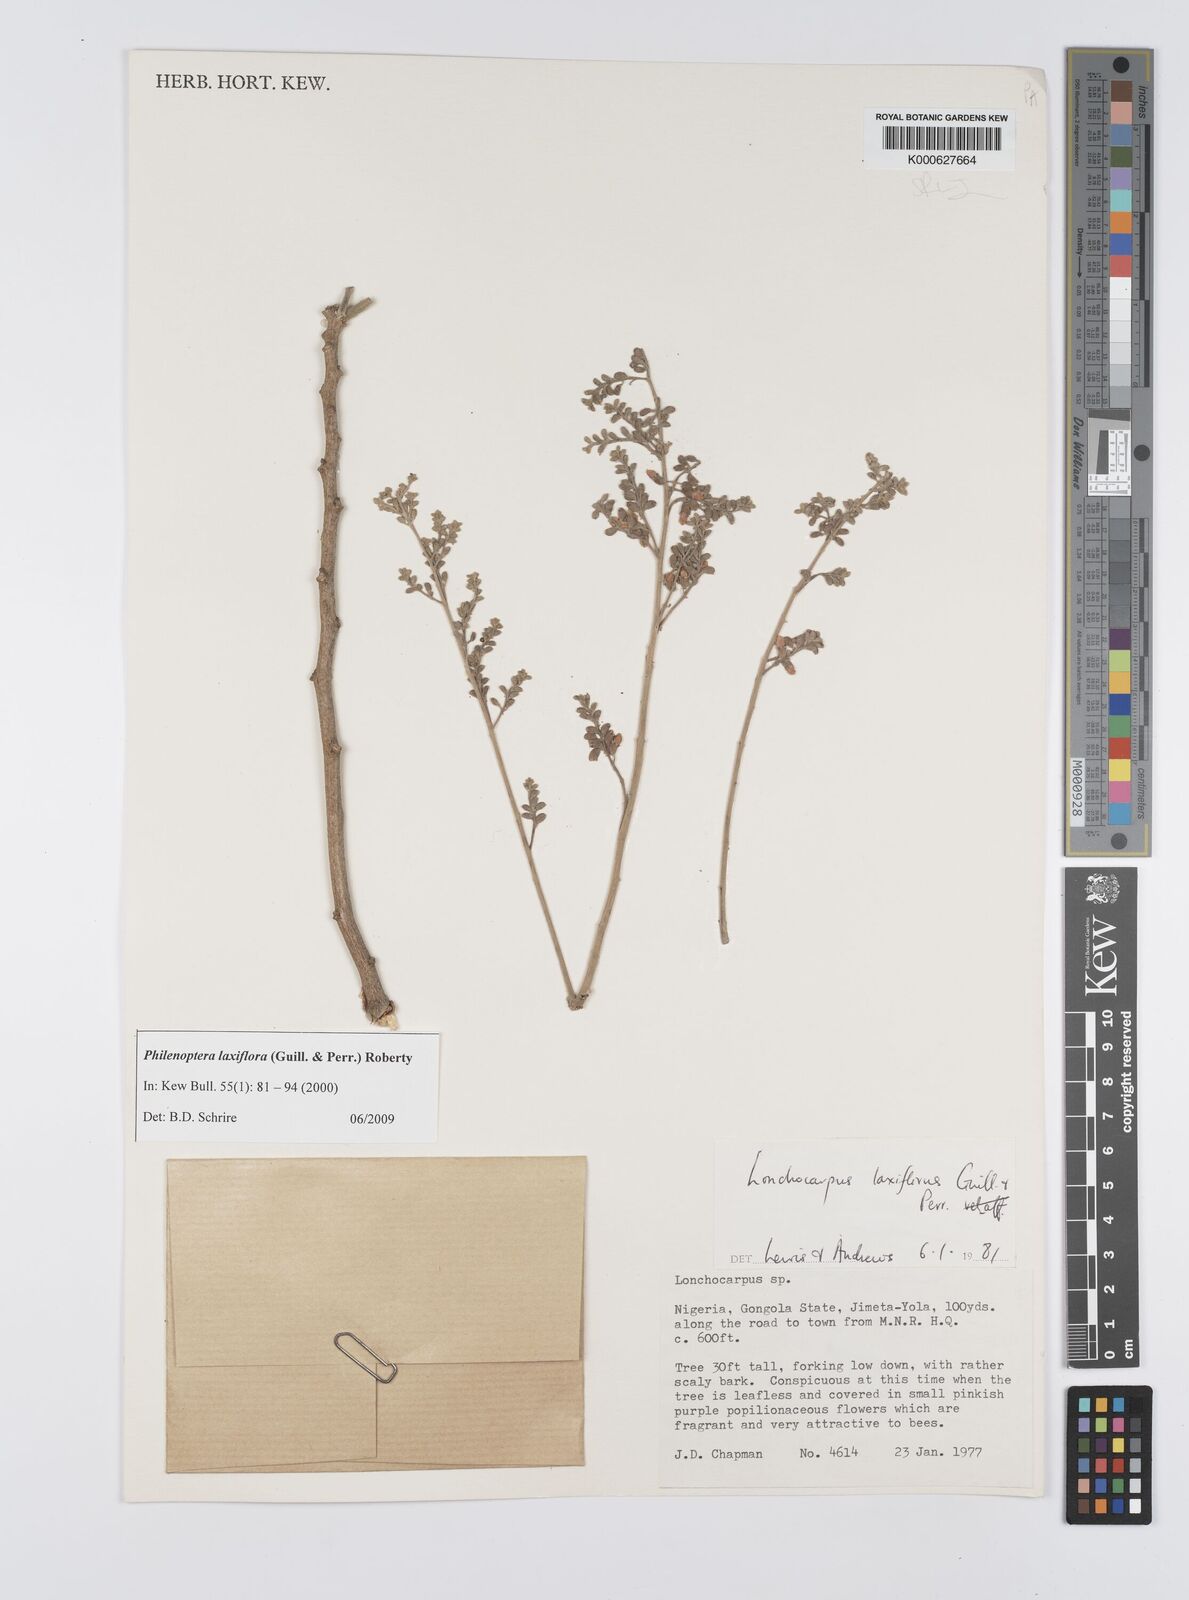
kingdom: Plantae
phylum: Tracheophyta
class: Magnoliopsida
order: Fabales
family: Fabaceae
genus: Philenoptera
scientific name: Philenoptera laxiflora
